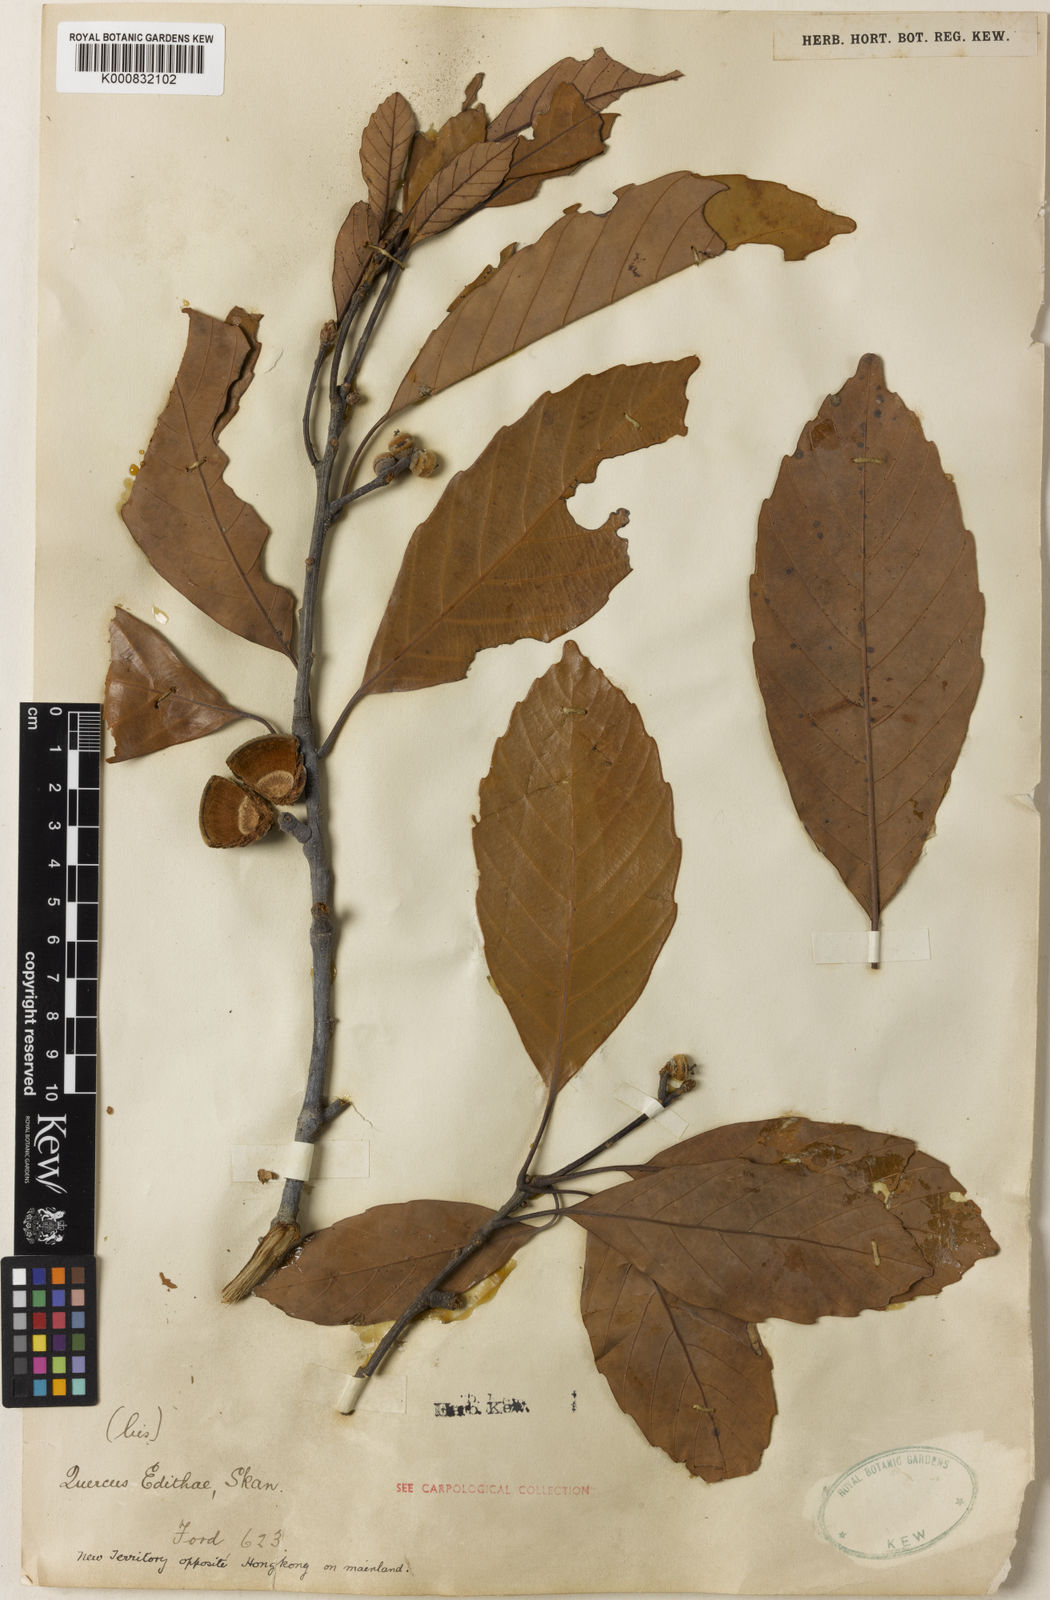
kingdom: Plantae
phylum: Tracheophyta
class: Magnoliopsida
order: Fagales
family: Fagaceae
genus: Quercus
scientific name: Quercus edithiae
